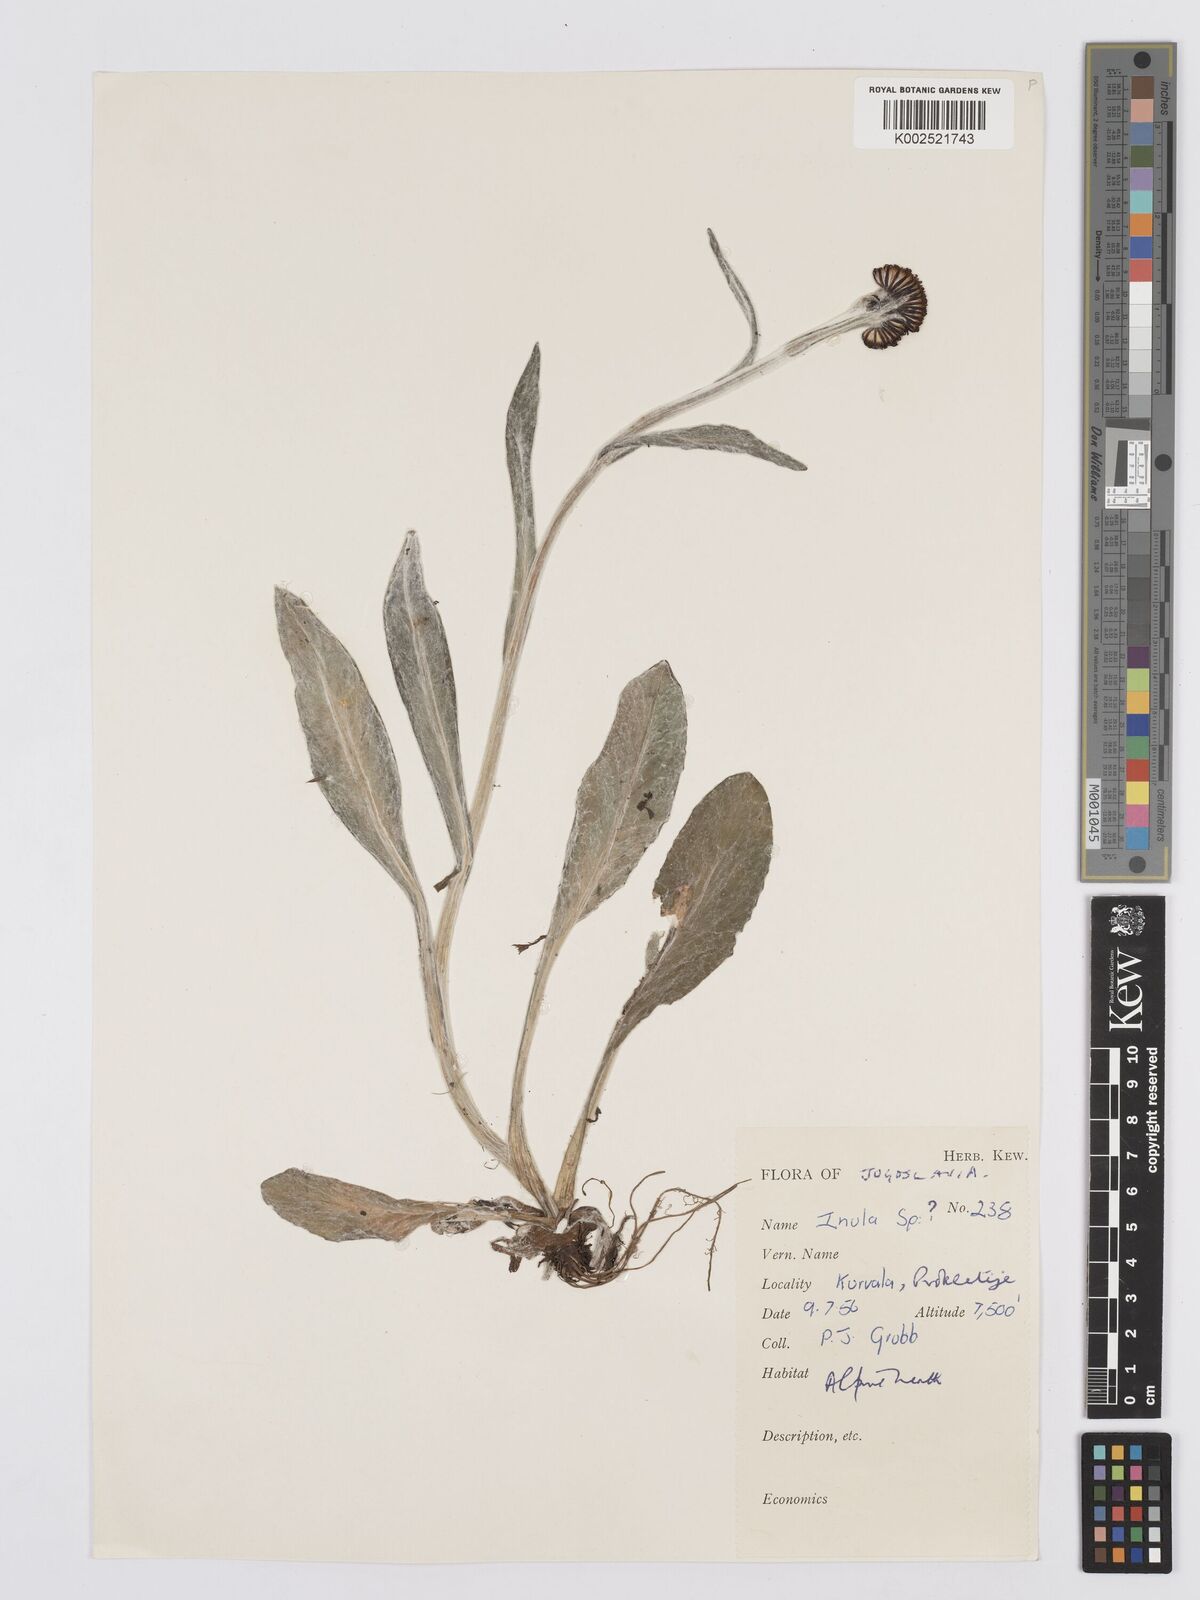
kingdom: Plantae
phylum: Tracheophyta
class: Magnoliopsida
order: Asterales
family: Asteraceae
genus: Tephroseris
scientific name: Tephroseris papposa
